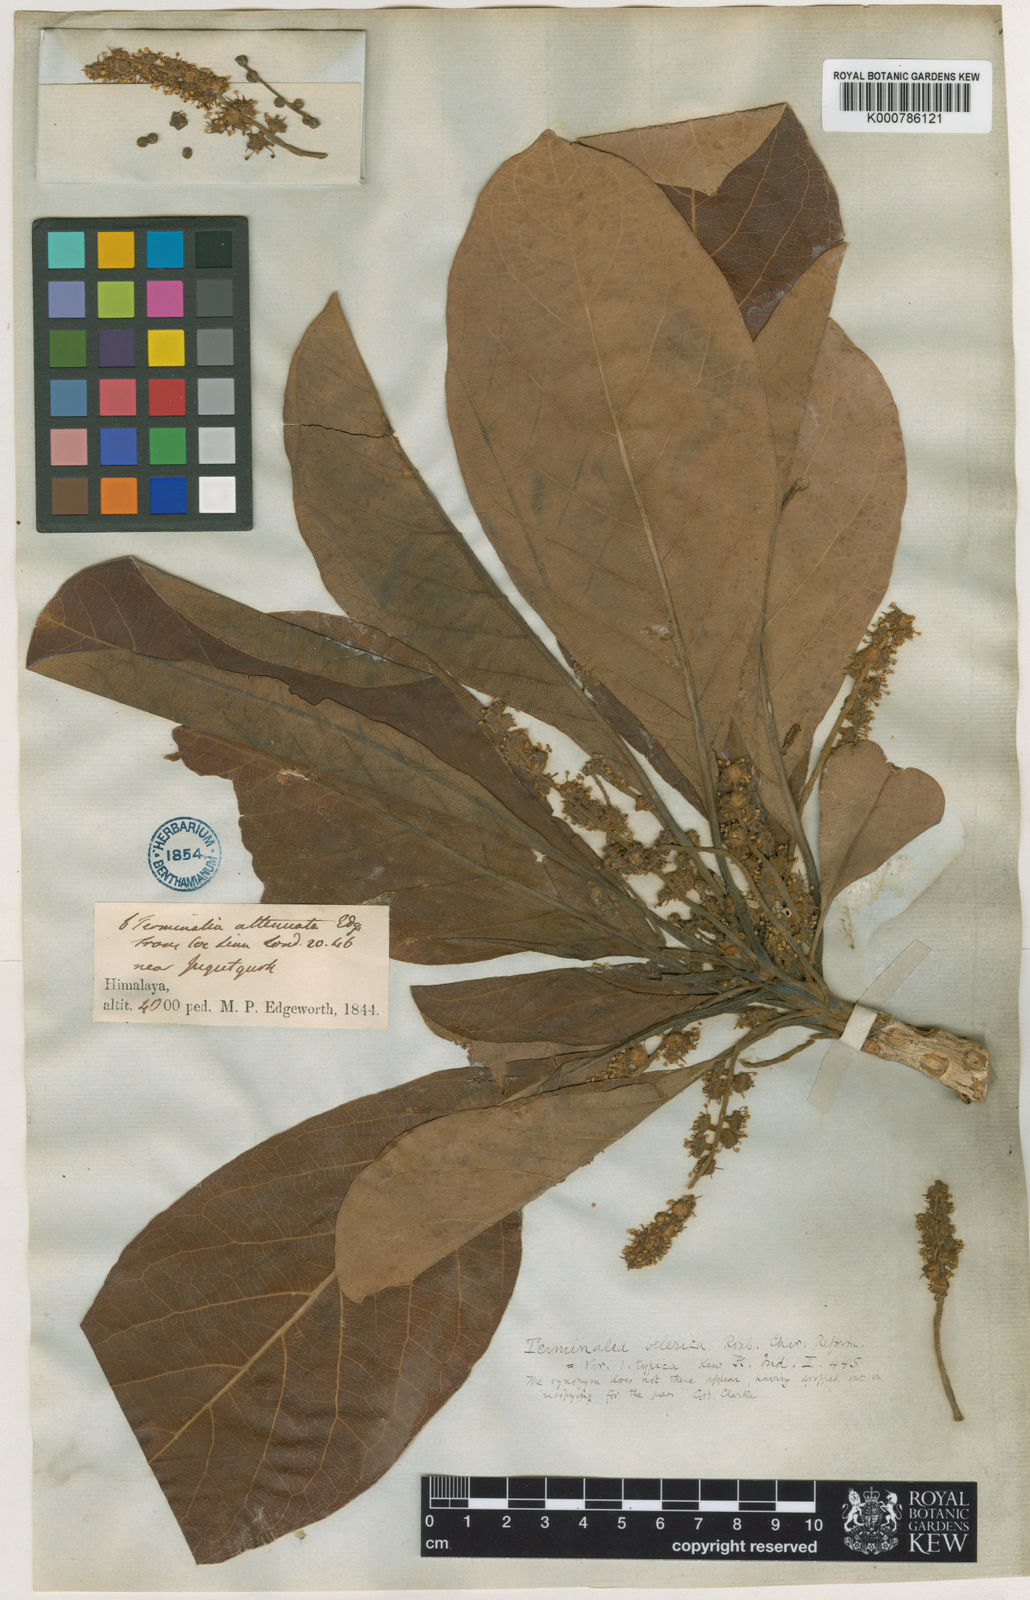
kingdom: Plantae
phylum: Tracheophyta
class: Magnoliopsida
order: Myrtales
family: Combretaceae
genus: Terminalia
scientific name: Terminalia bellirica
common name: Beleric myrobalan
